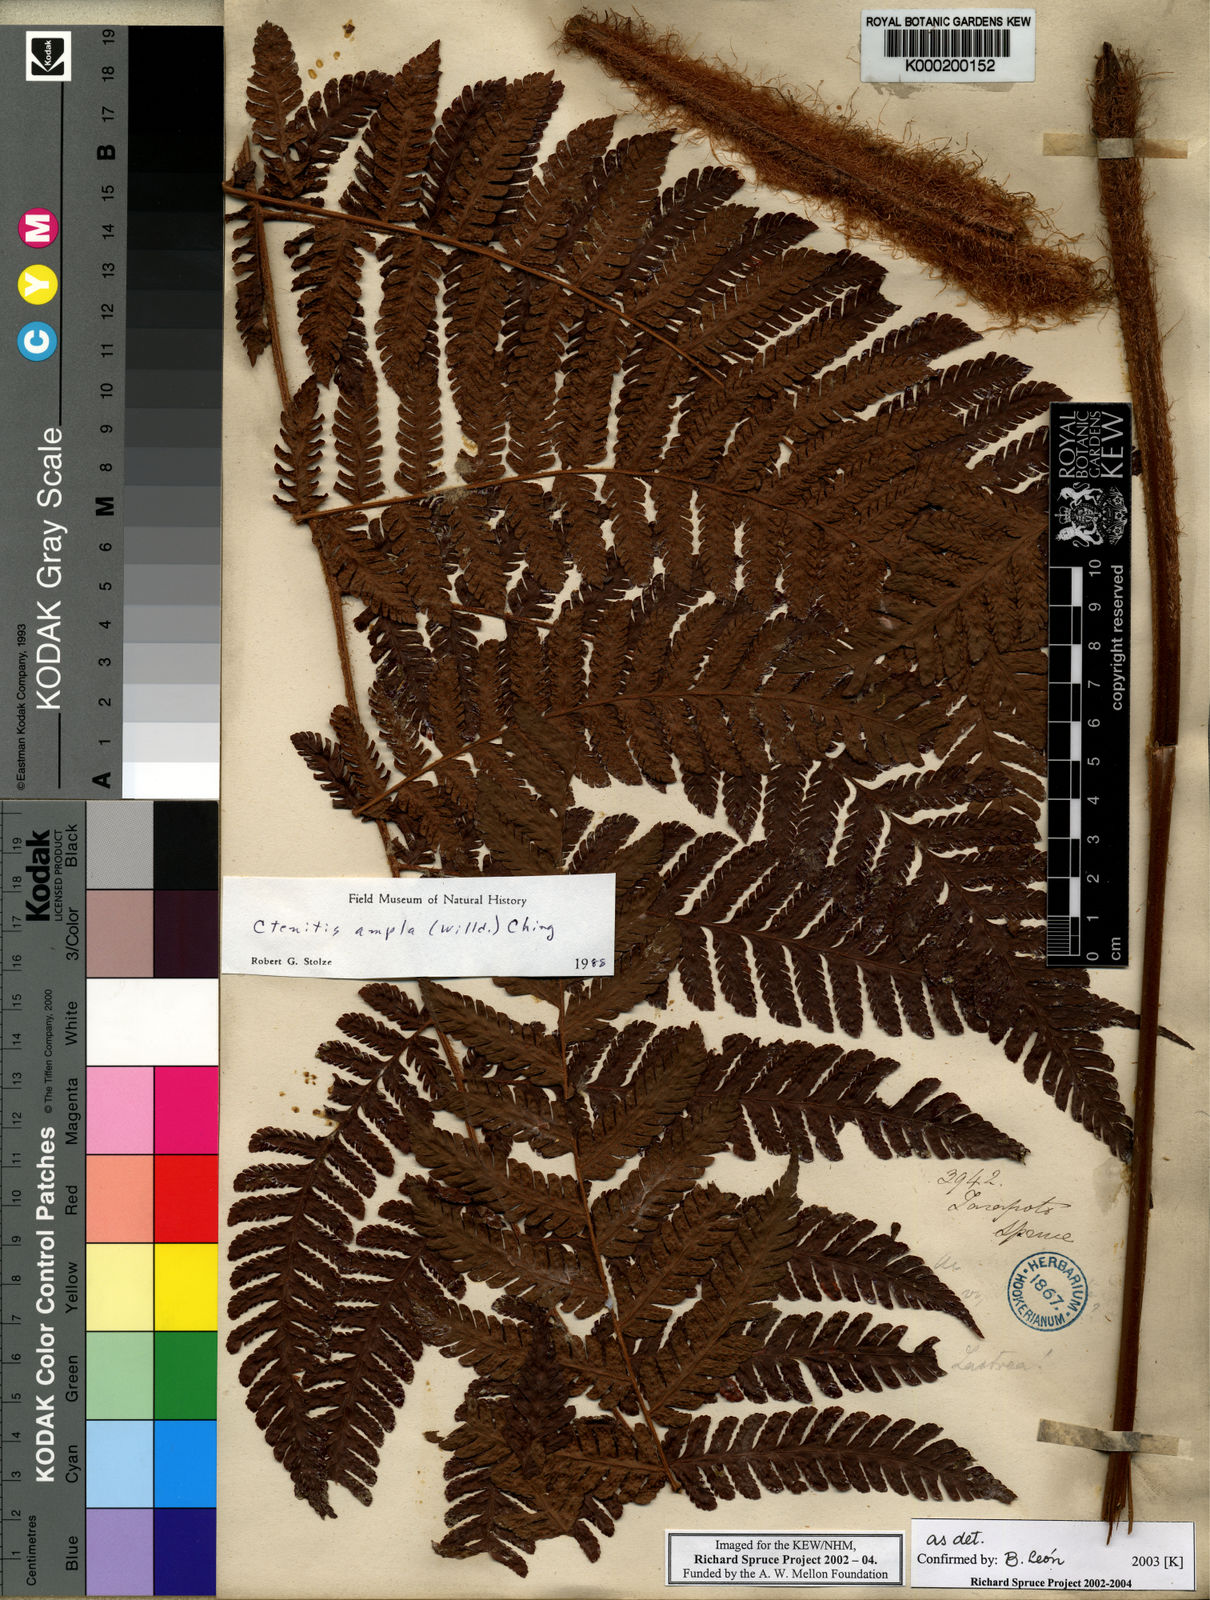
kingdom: Plantae
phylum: Tracheophyta
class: Polypodiopsida
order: Polypodiales
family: Dryopteridaceae
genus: Ctenitis
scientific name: Ctenitis sloanei
